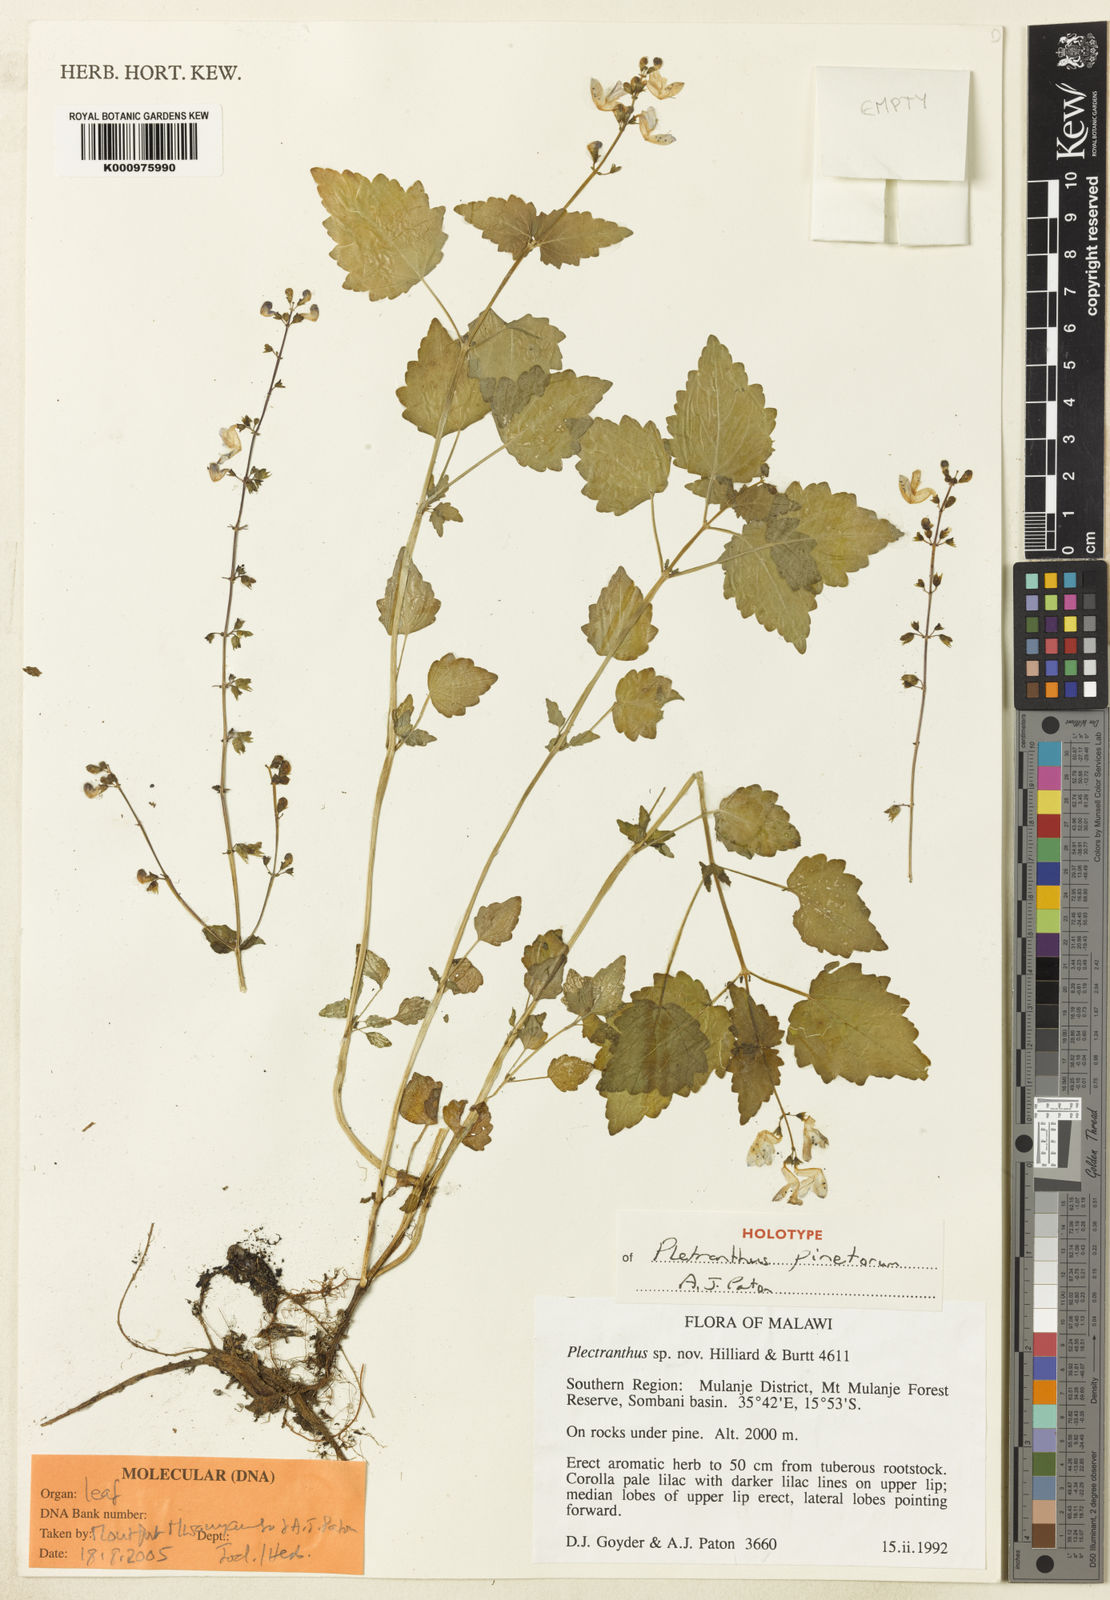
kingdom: Plantae
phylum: Tracheophyta
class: Magnoliopsida
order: Lamiales
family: Lamiaceae
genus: Equilabium
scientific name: Equilabium pinetorum
